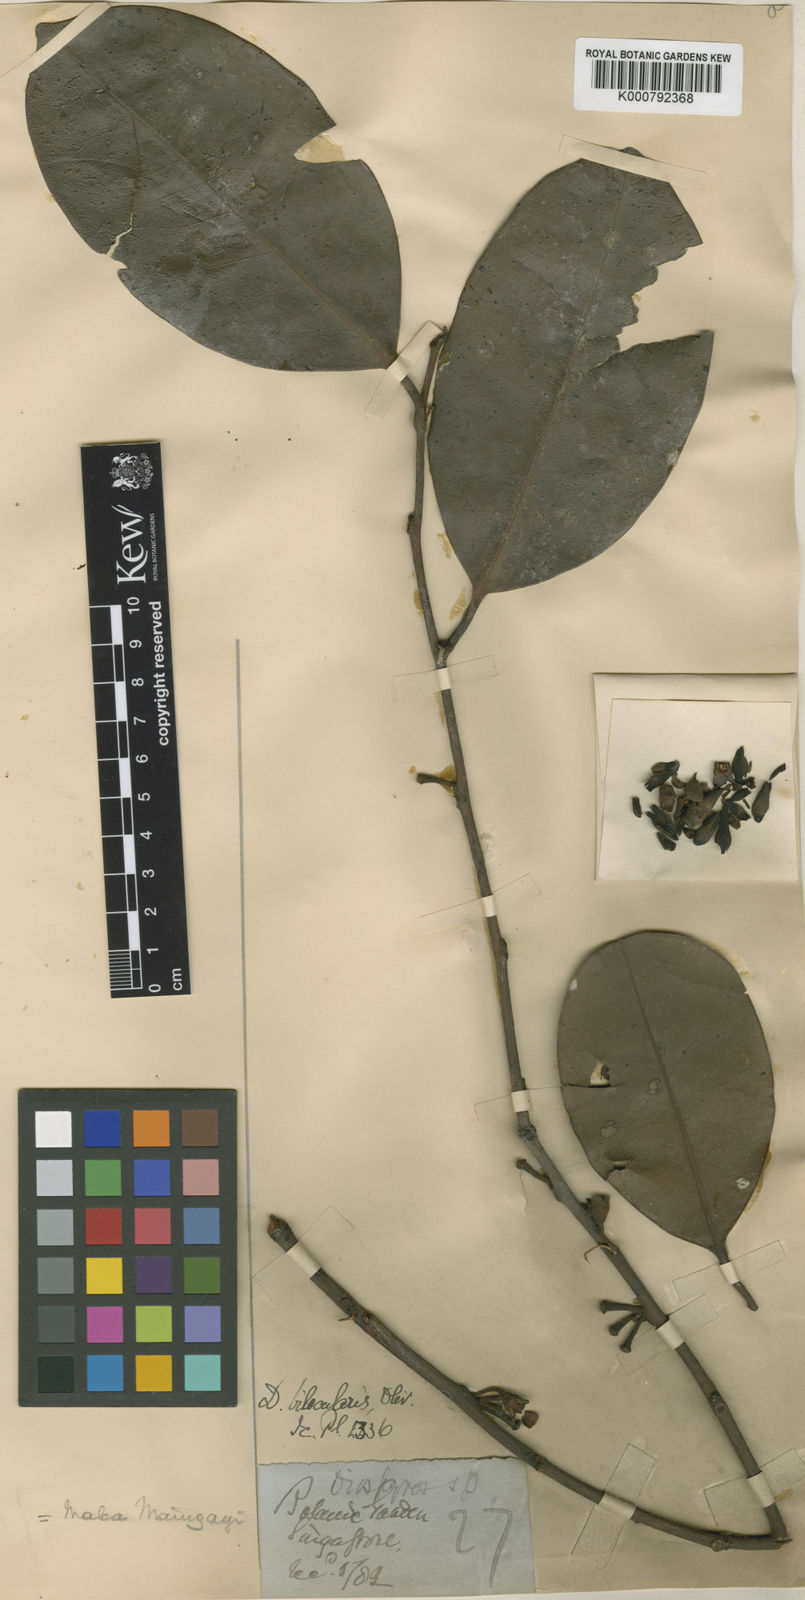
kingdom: Plantae
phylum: Tracheophyta
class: Magnoliopsida
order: Ericales
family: Ebenaceae
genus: Diospyros
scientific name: Diospyros maingayi
